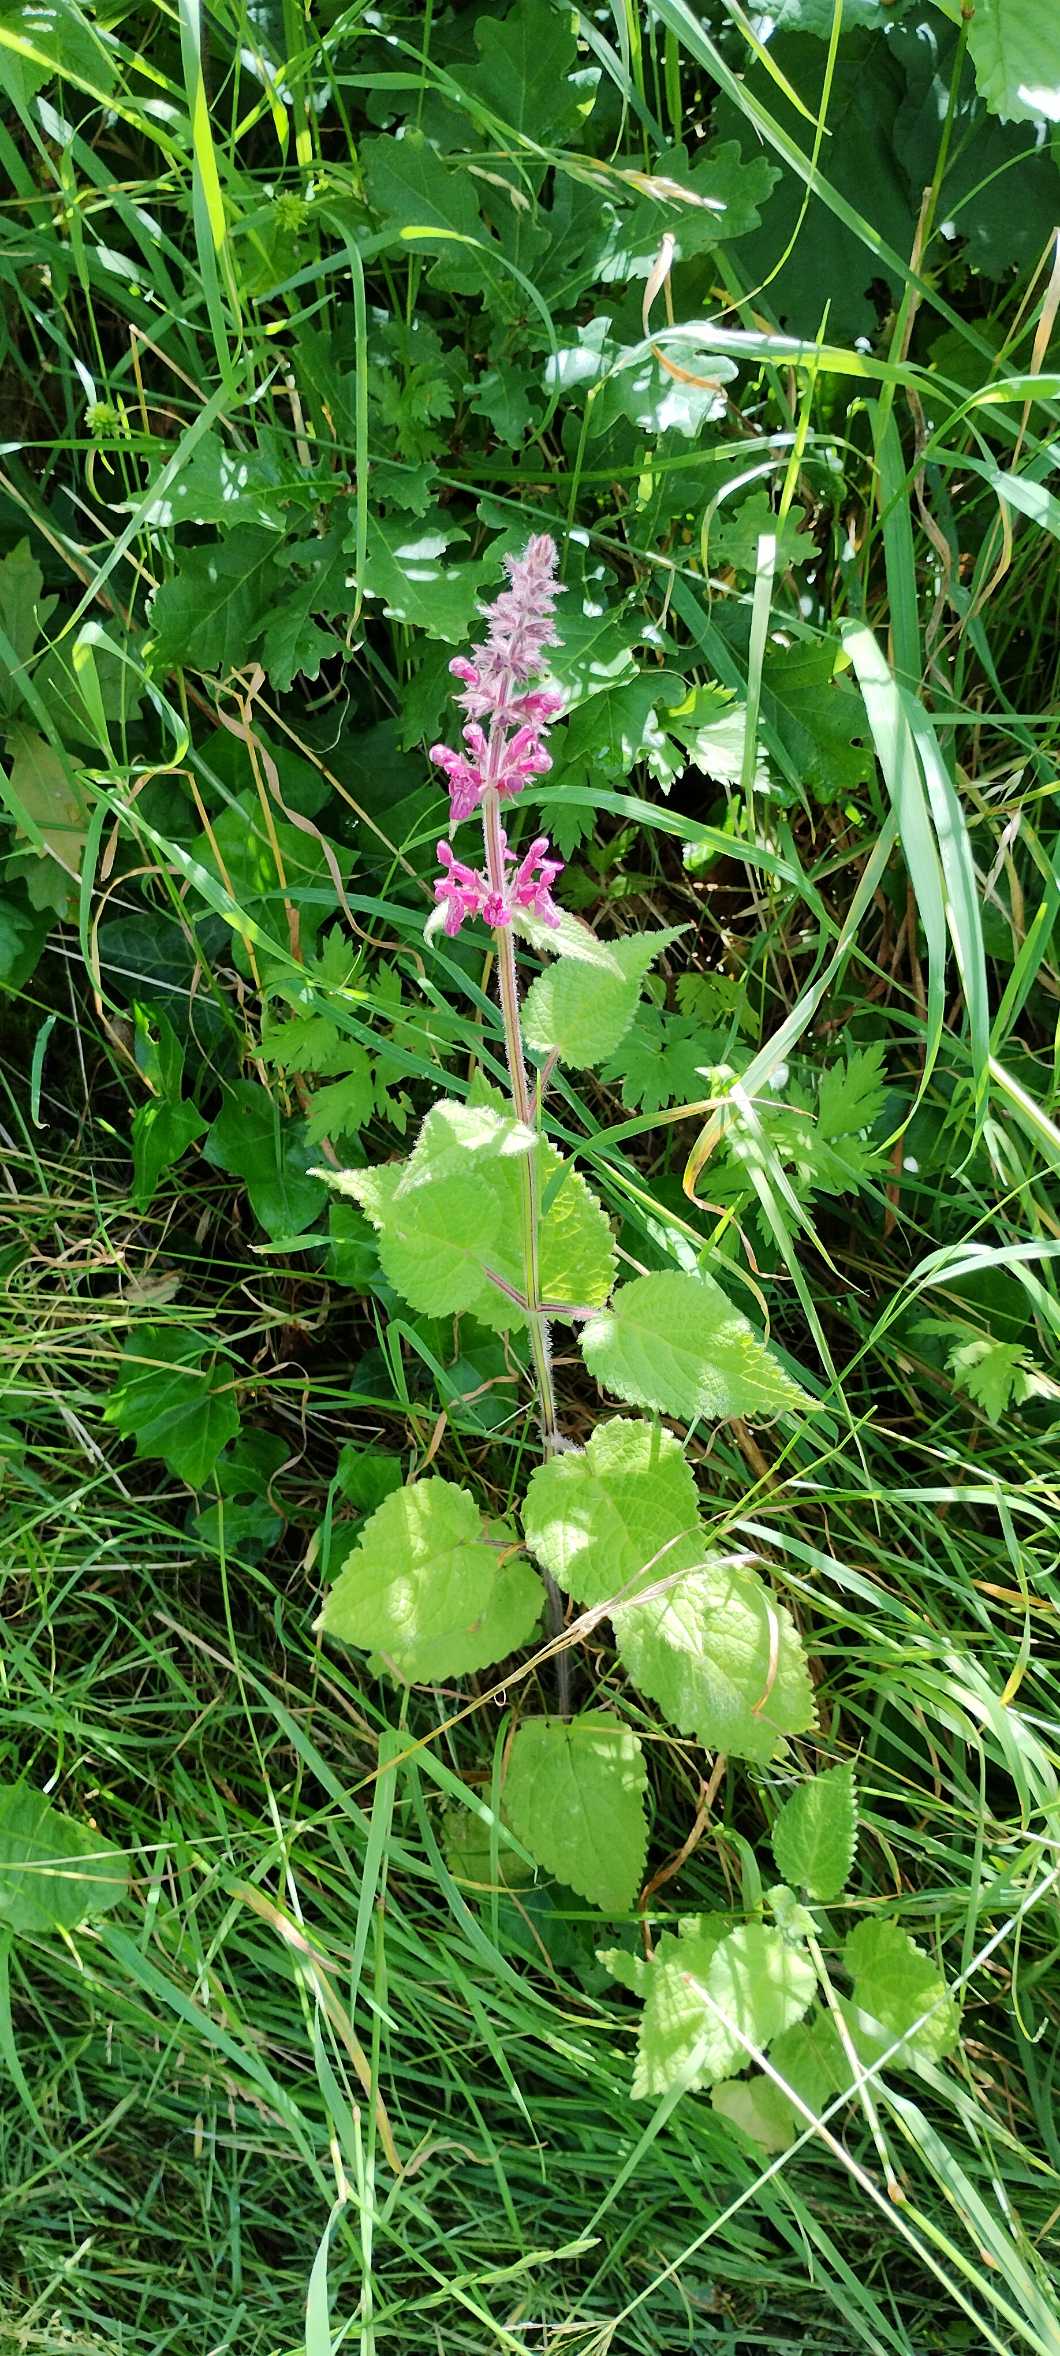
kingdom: Plantae
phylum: Tracheophyta
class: Magnoliopsida
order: Lamiales
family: Lamiaceae
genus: Stachys
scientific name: Stachys sylvatica
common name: Skov-galtetand
